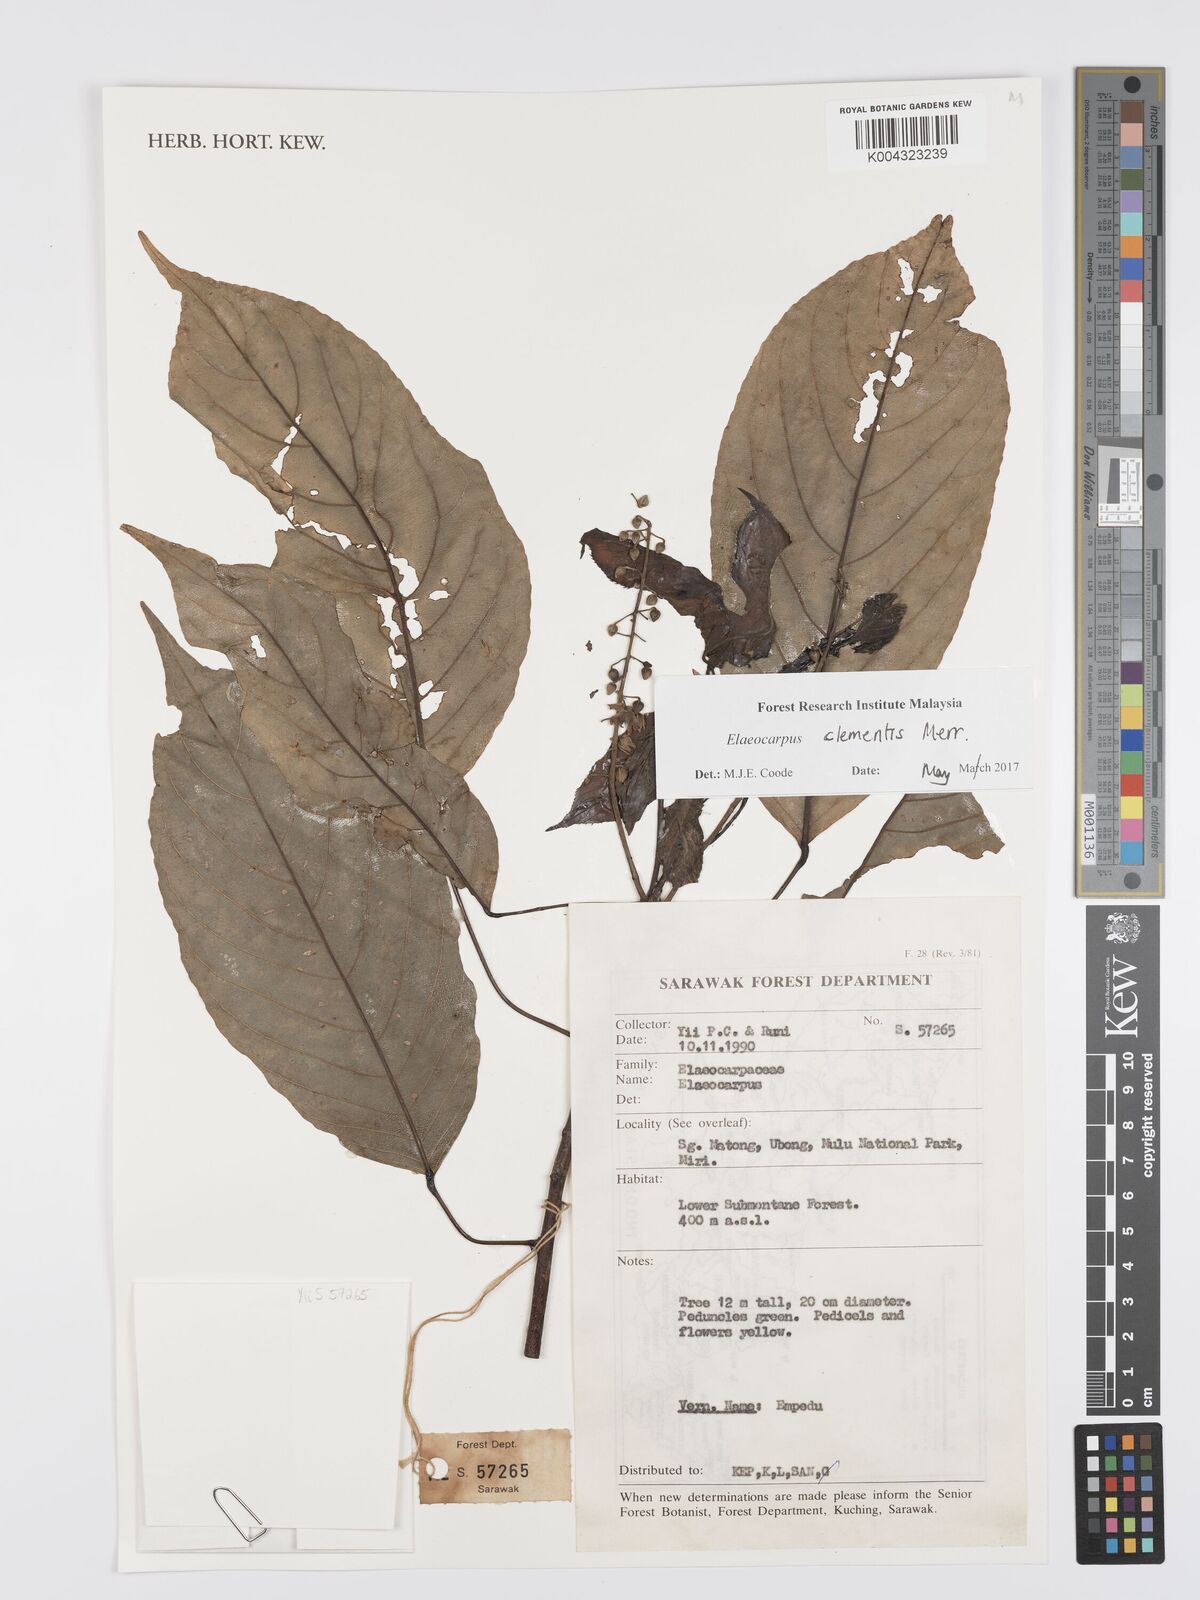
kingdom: Plantae
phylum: Tracheophyta
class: Magnoliopsida
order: Oxalidales
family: Elaeocarpaceae
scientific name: Elaeocarpaceae
